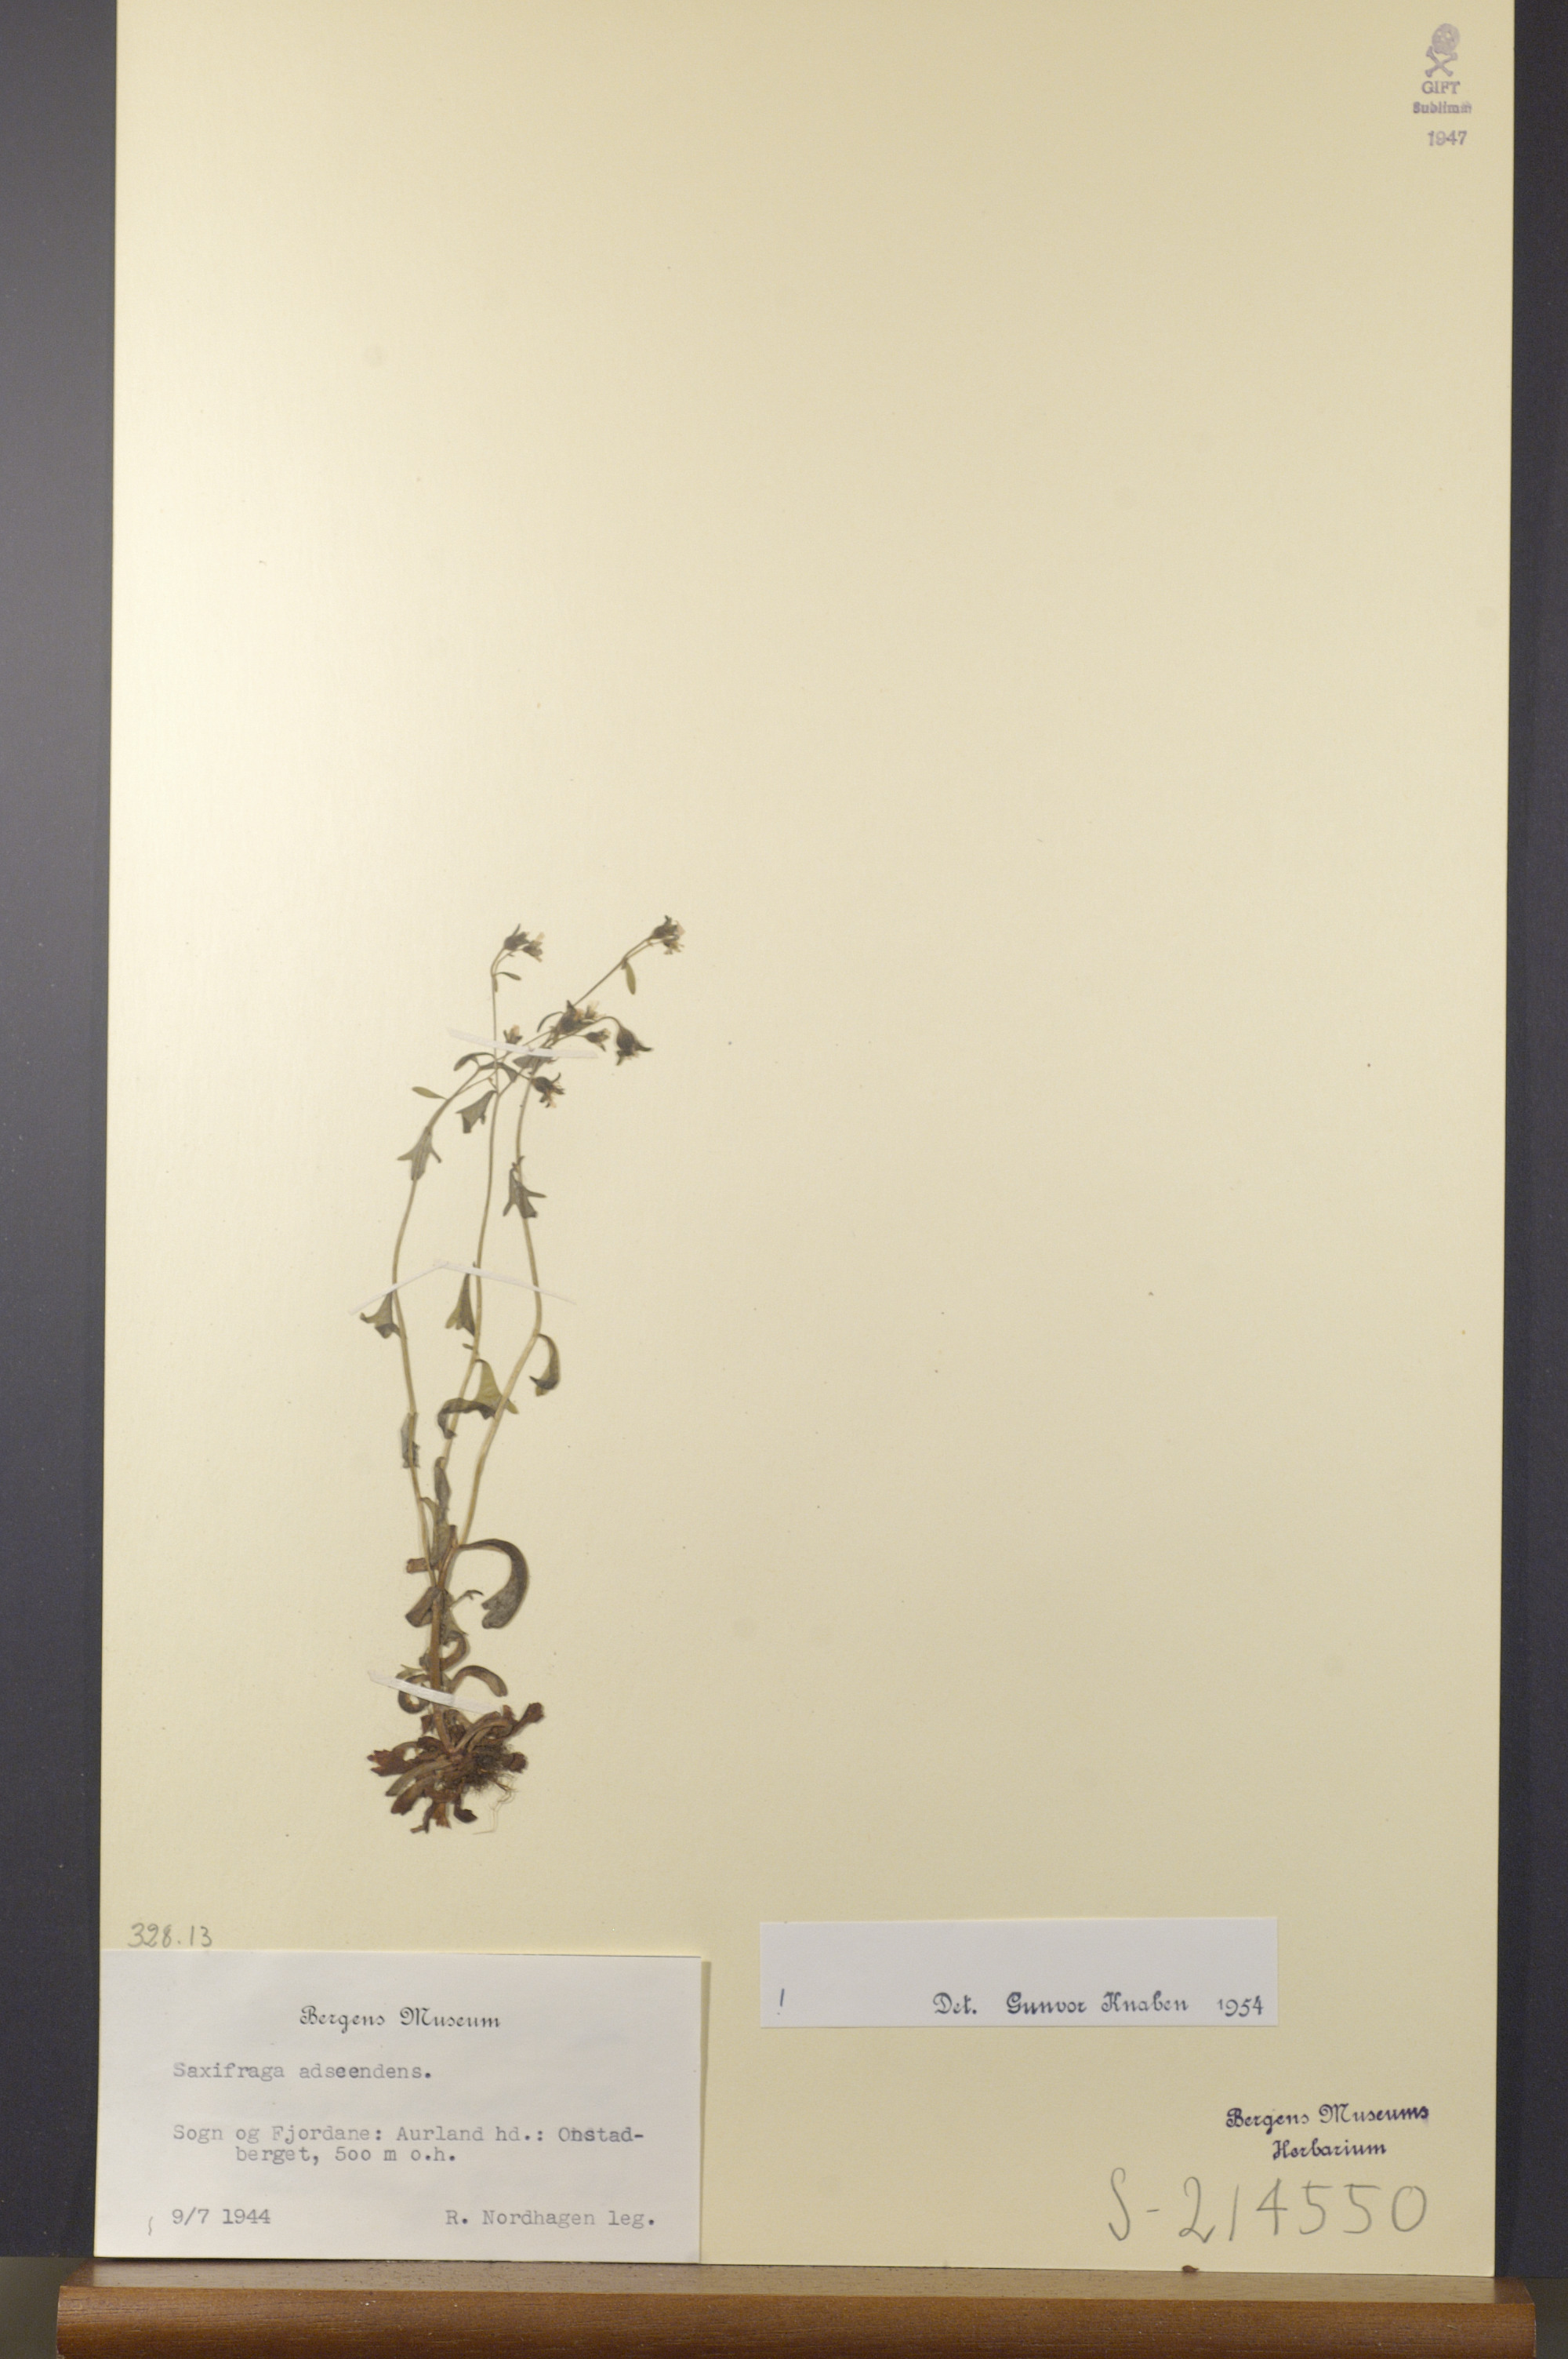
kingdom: Plantae
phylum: Tracheophyta
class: Magnoliopsida
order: Saxifragales
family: Saxifragaceae
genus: Saxifraga
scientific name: Saxifraga adscendens
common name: Ascending saxifrage
